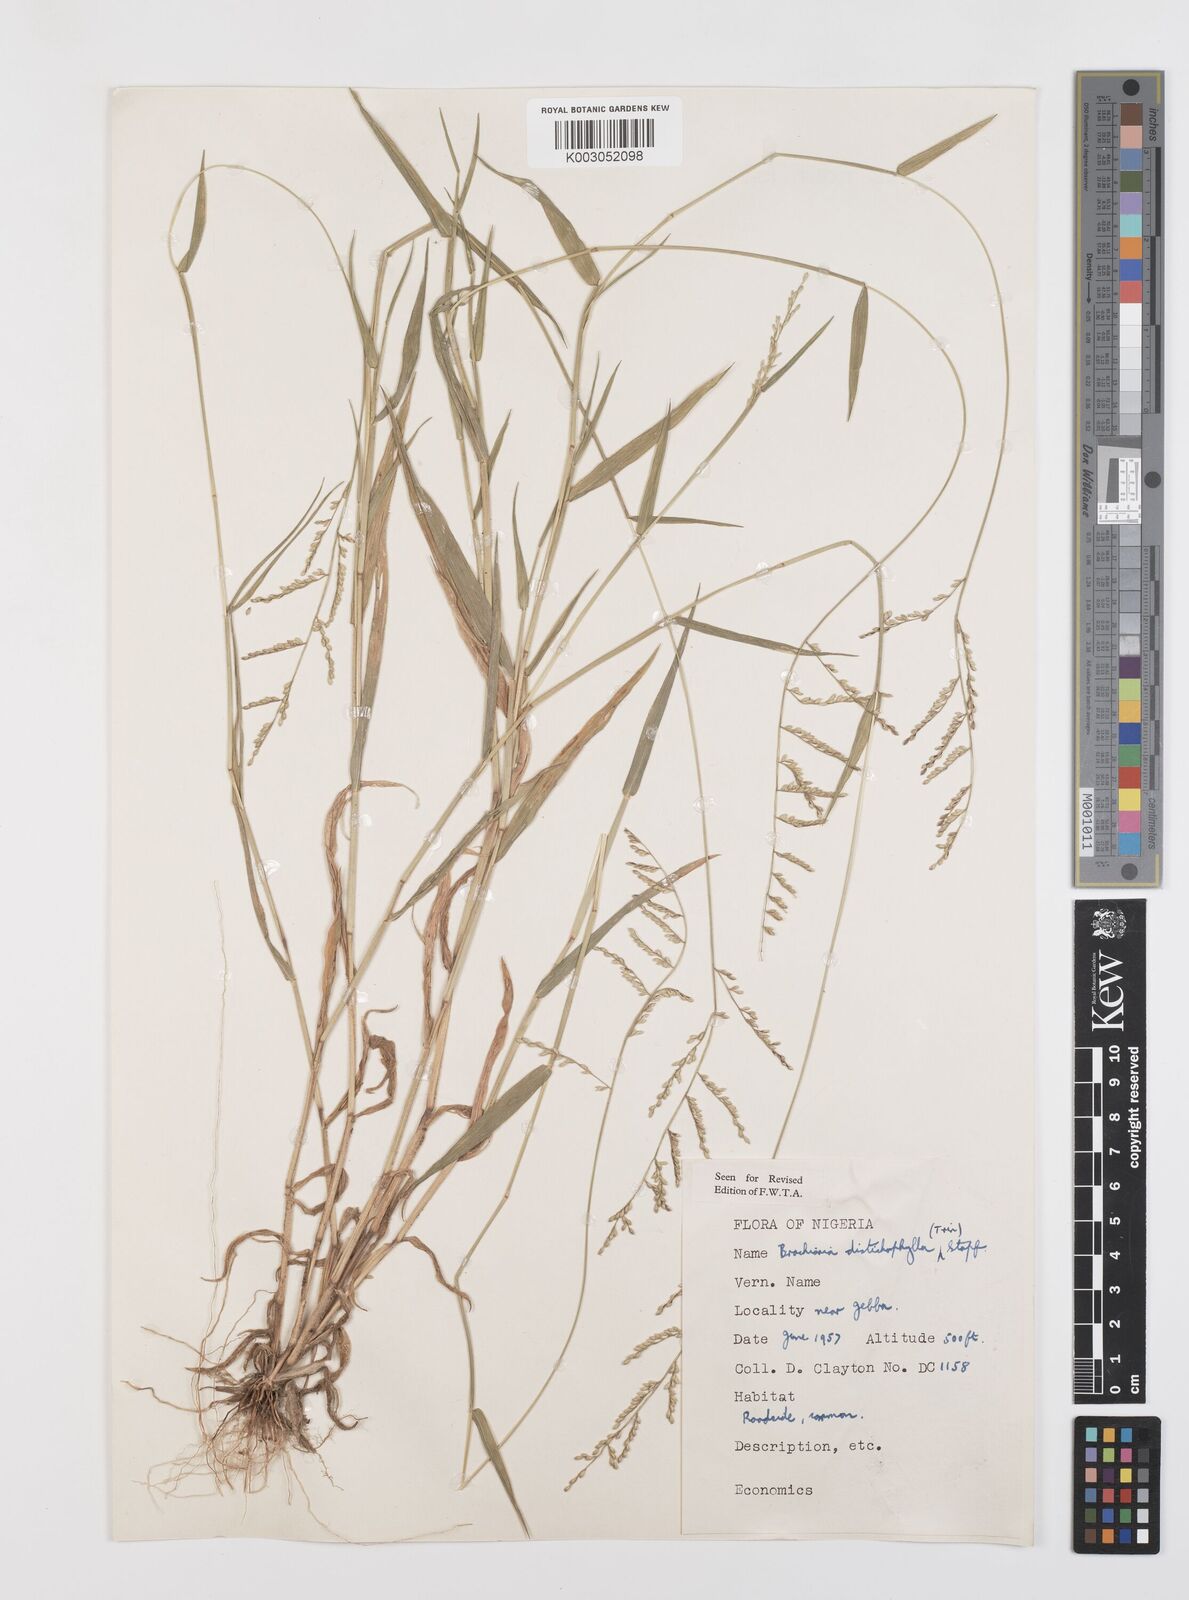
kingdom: Plantae
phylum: Tracheophyta
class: Liliopsida
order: Poales
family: Poaceae
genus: Urochloa
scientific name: Urochloa villosa
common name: Hairy signalgrass
